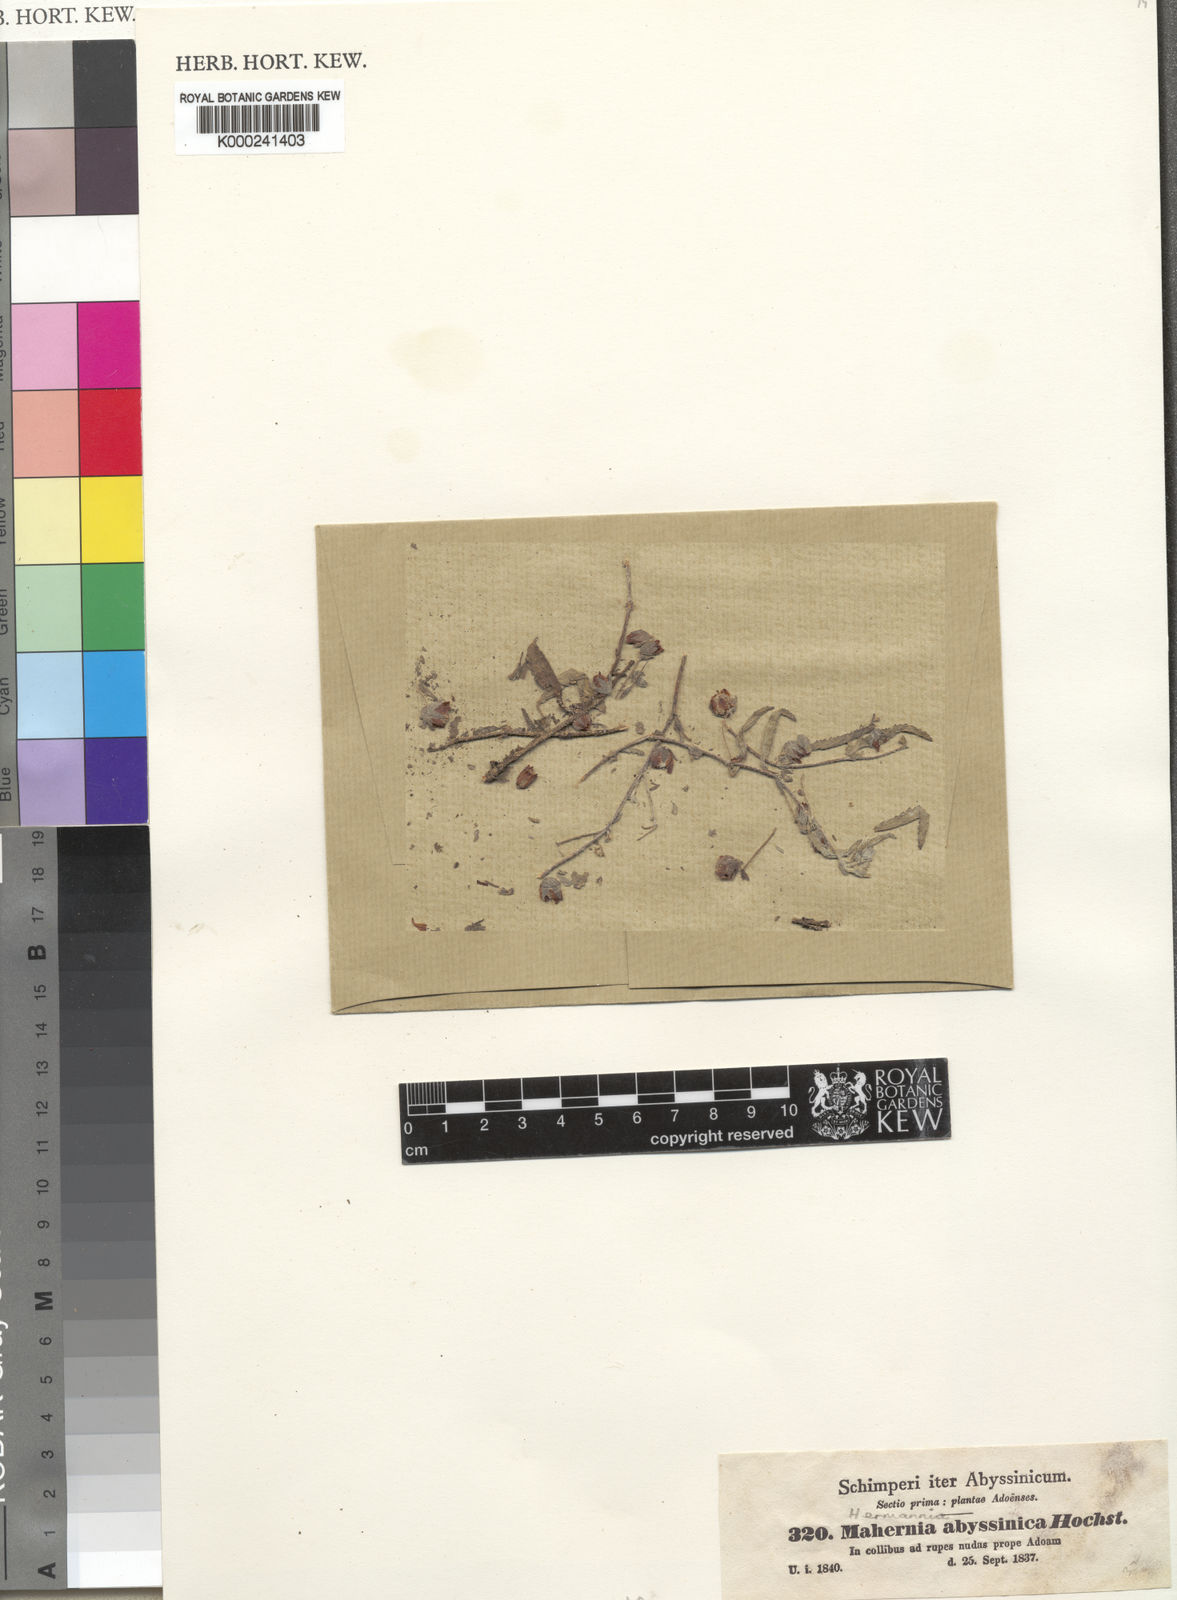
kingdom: Plantae
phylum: Tracheophyta
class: Magnoliopsida
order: Malvales
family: Malvaceae
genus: Hermannia
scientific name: Hermannia quartiniana
